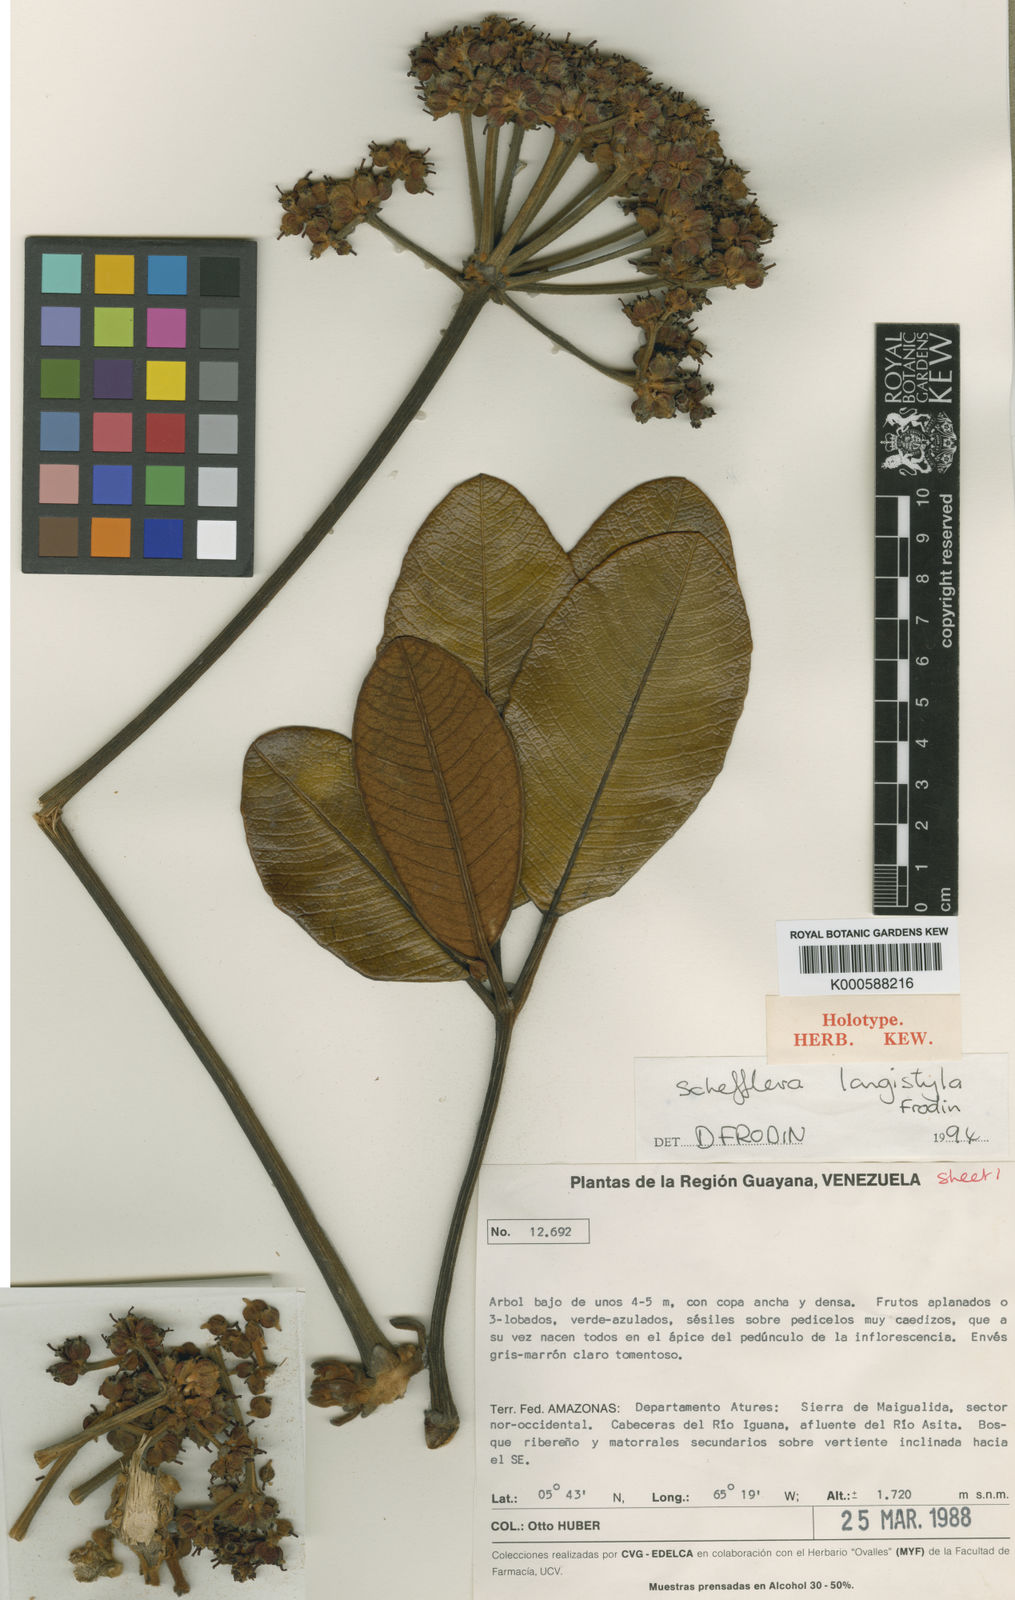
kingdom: Plantae
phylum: Tracheophyta
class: Magnoliopsida
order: Apiales
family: Araliaceae
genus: Crepinella
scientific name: Crepinella
